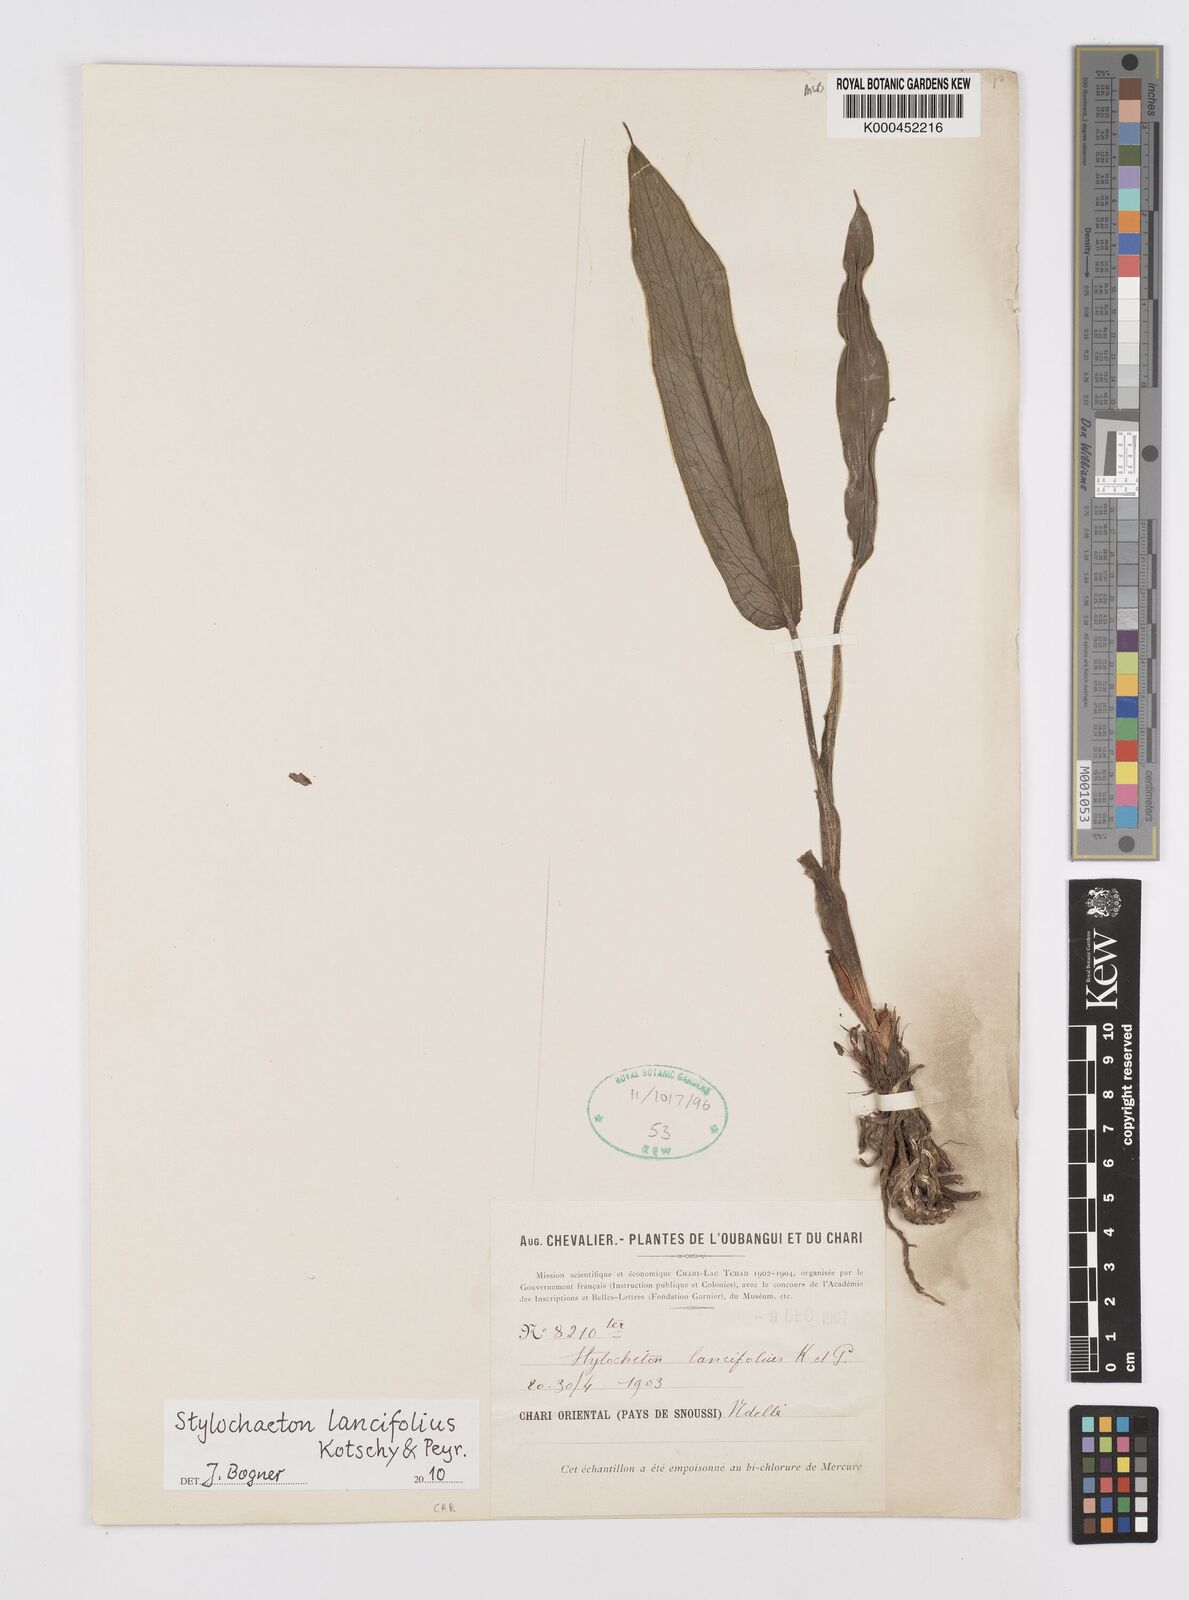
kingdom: Plantae
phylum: Tracheophyta
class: Liliopsida
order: Alismatales
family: Araceae
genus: Stylochaeton
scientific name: Stylochaeton lancifolium
